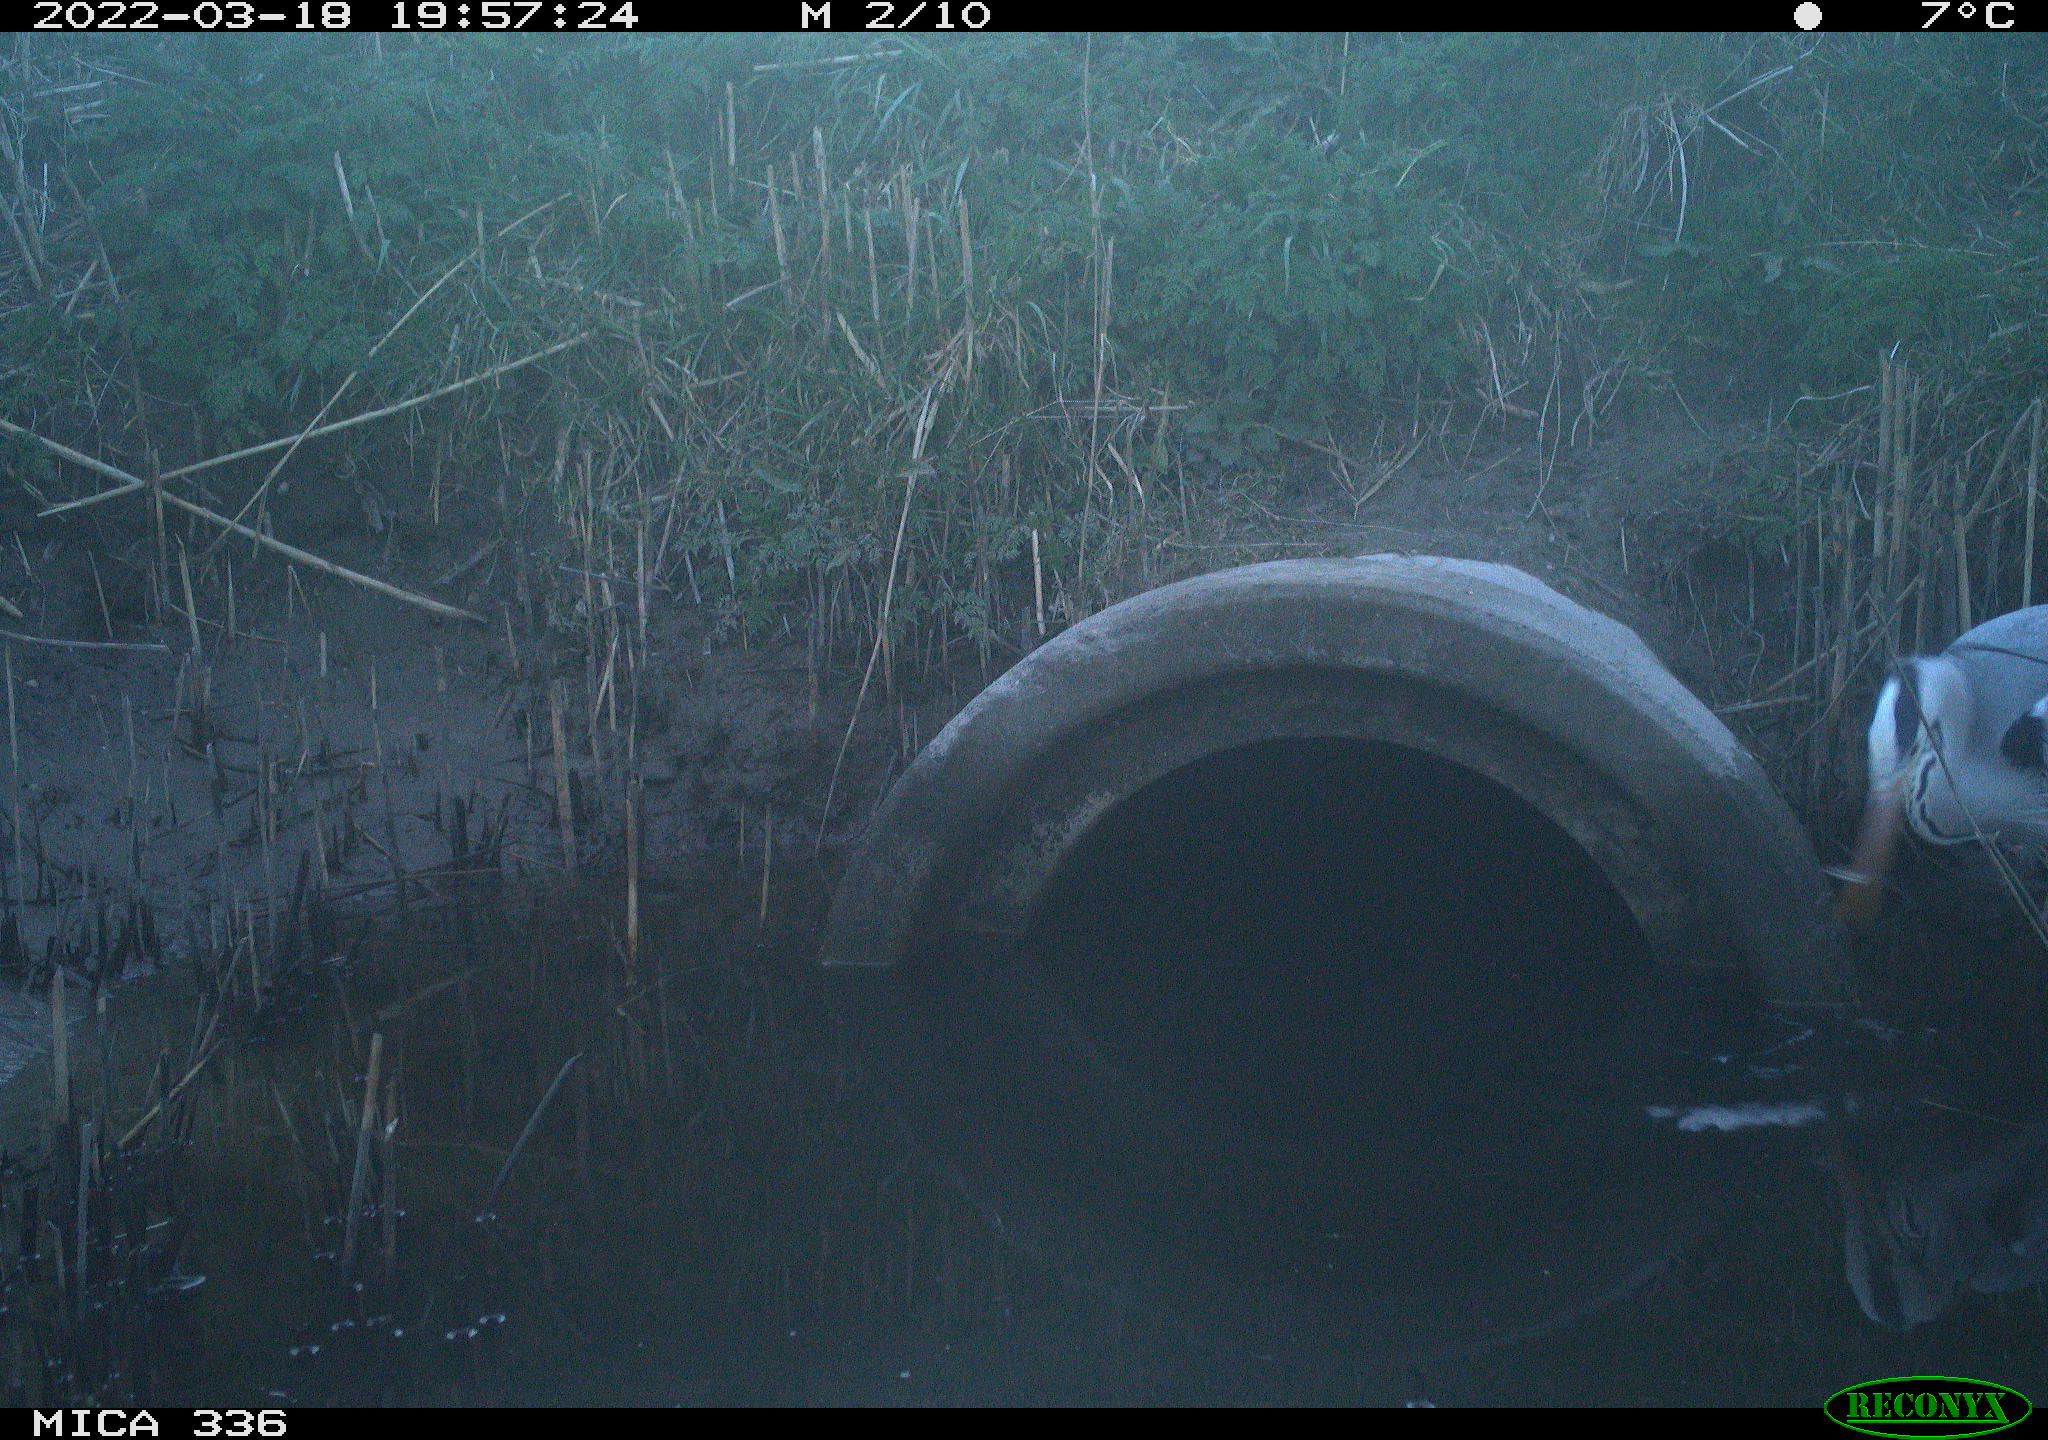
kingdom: Animalia
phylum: Chordata
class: Aves
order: Pelecaniformes
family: Ardeidae
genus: Ardea
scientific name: Ardea cinerea
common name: Grey heron
